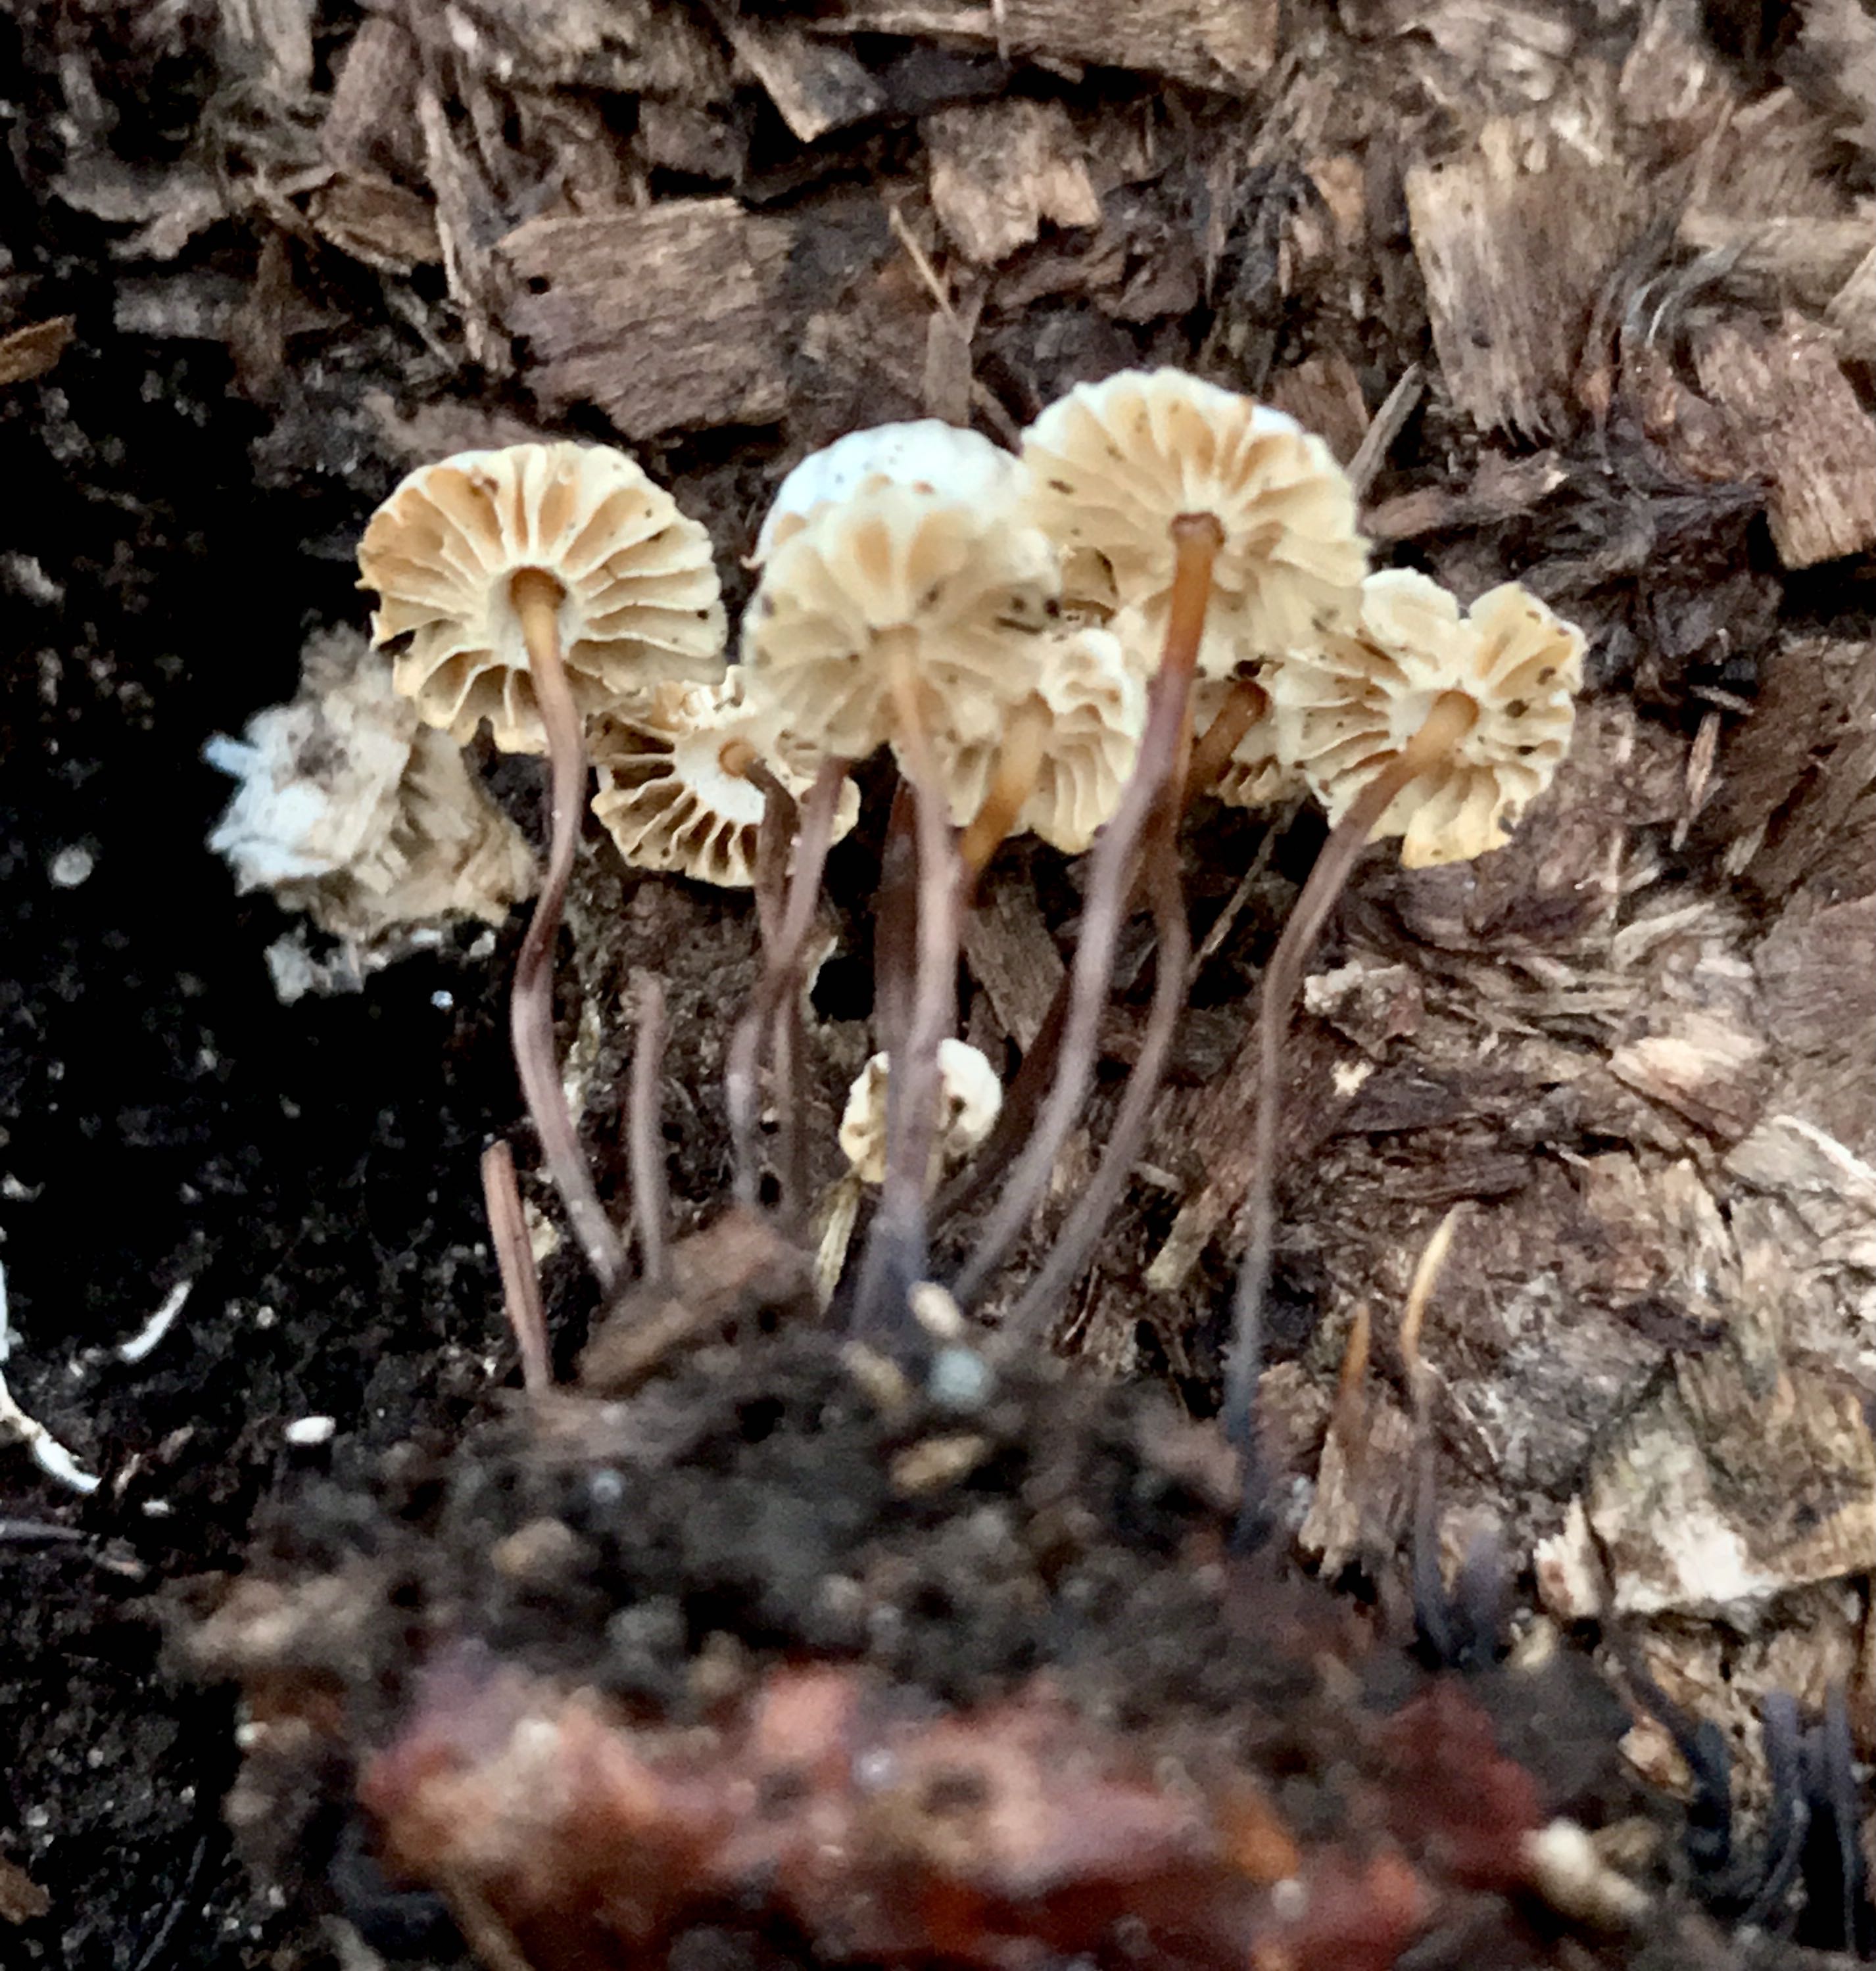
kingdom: Fungi
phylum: Basidiomycota
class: Agaricomycetes
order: Agaricales
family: Marasmiaceae
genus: Marasmius
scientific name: Marasmius rotula
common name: hjul-bruskhat
